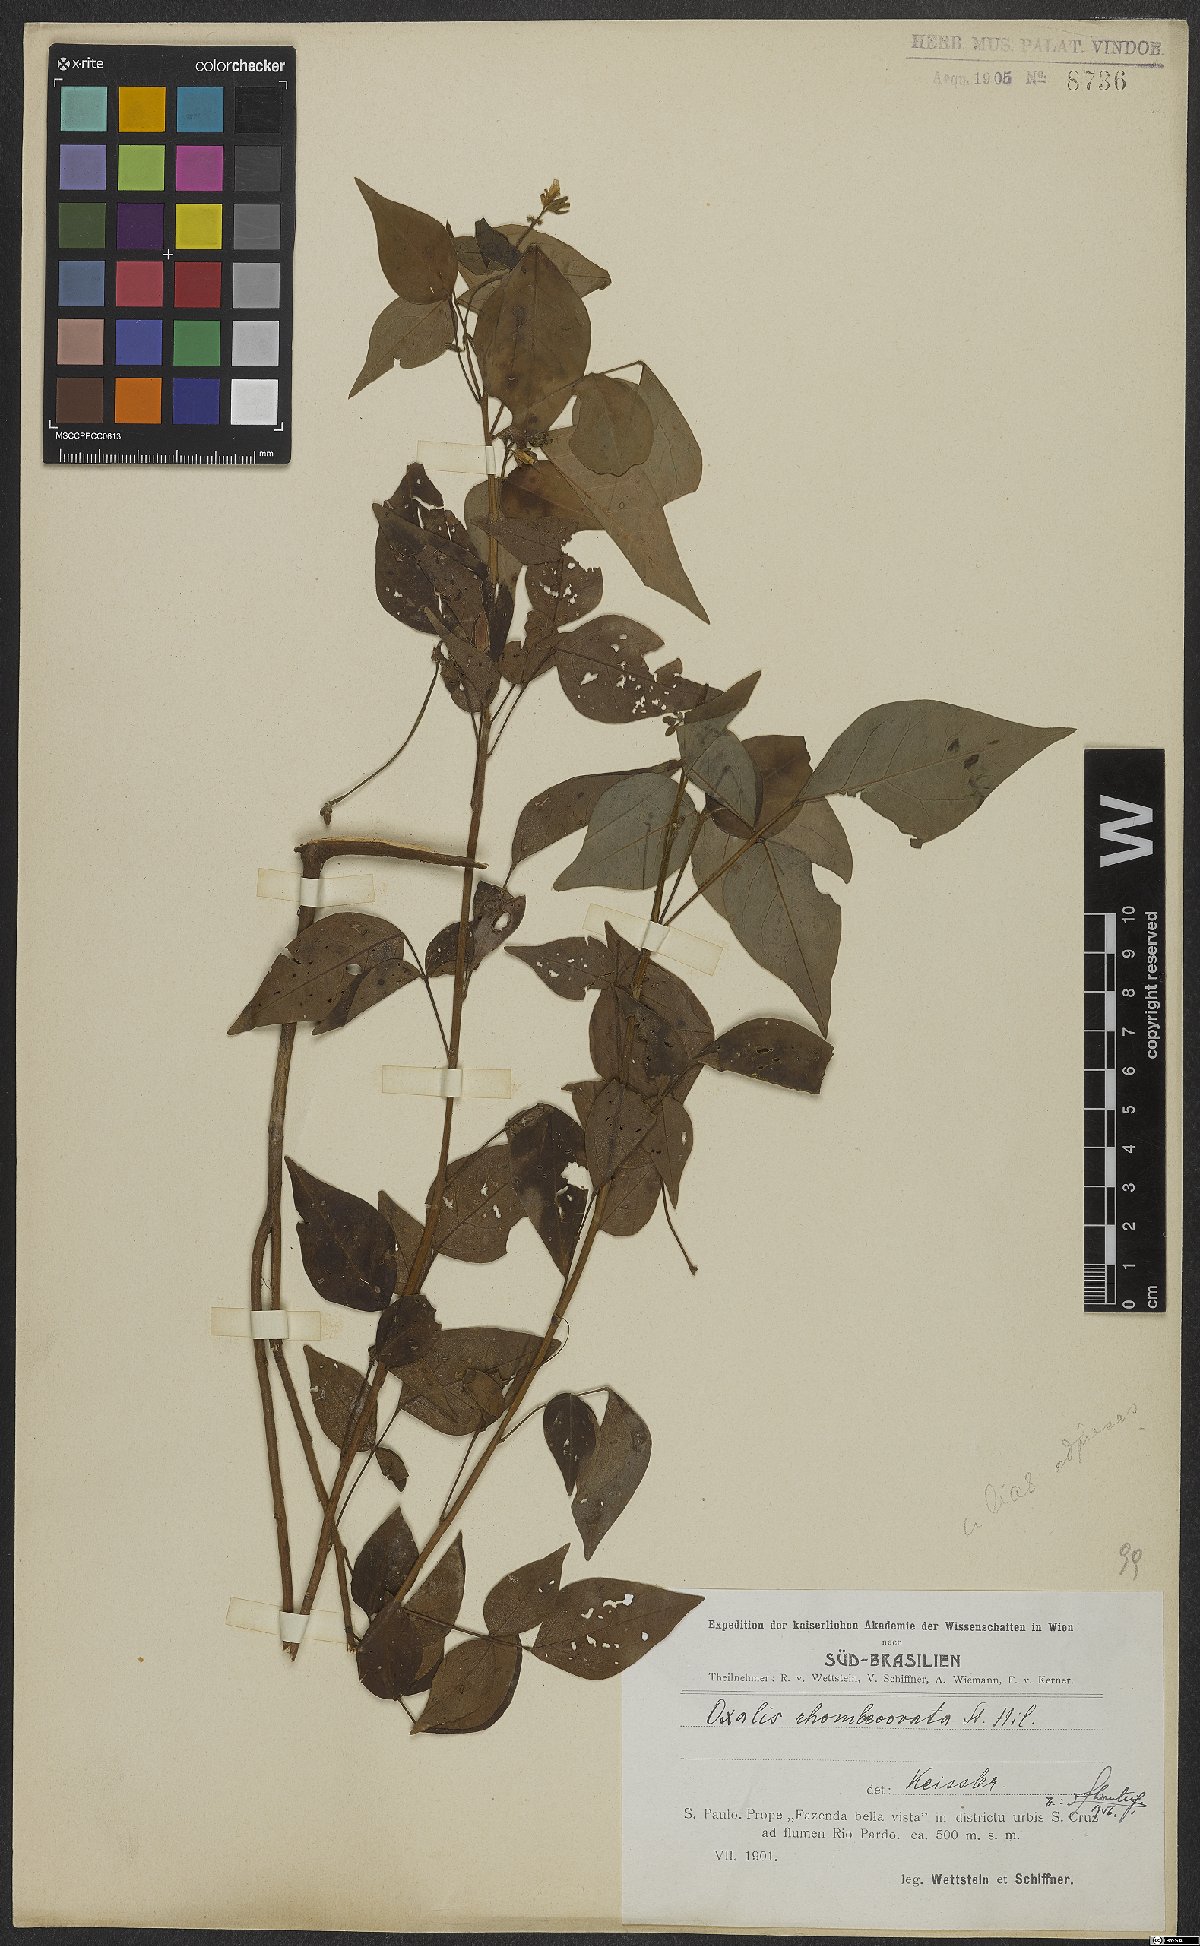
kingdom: Plantae
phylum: Tracheophyta
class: Magnoliopsida
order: Oxalidales
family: Oxalidaceae
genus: Oxalis
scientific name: Oxalis rhombeo-ovata
